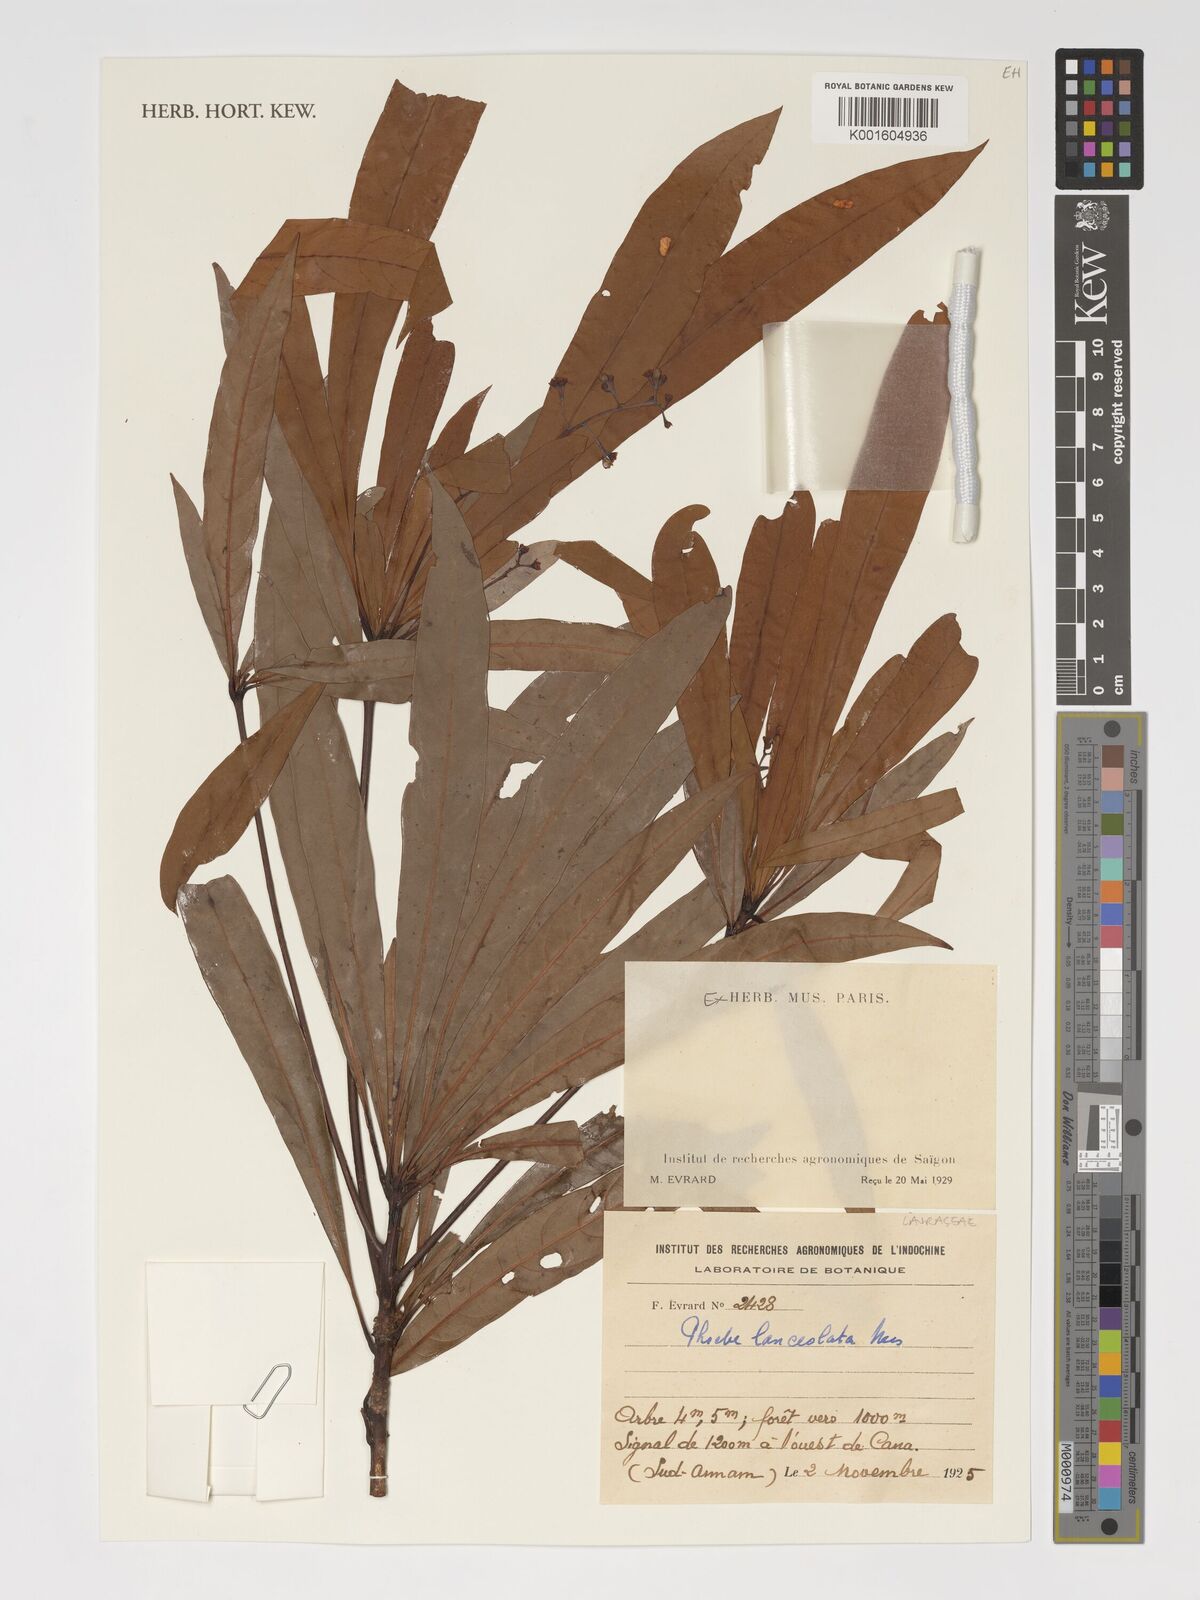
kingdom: Plantae
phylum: Tracheophyta
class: Magnoliopsida
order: Laurales
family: Lauraceae
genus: Phoebe
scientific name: Phoebe lanceolata
